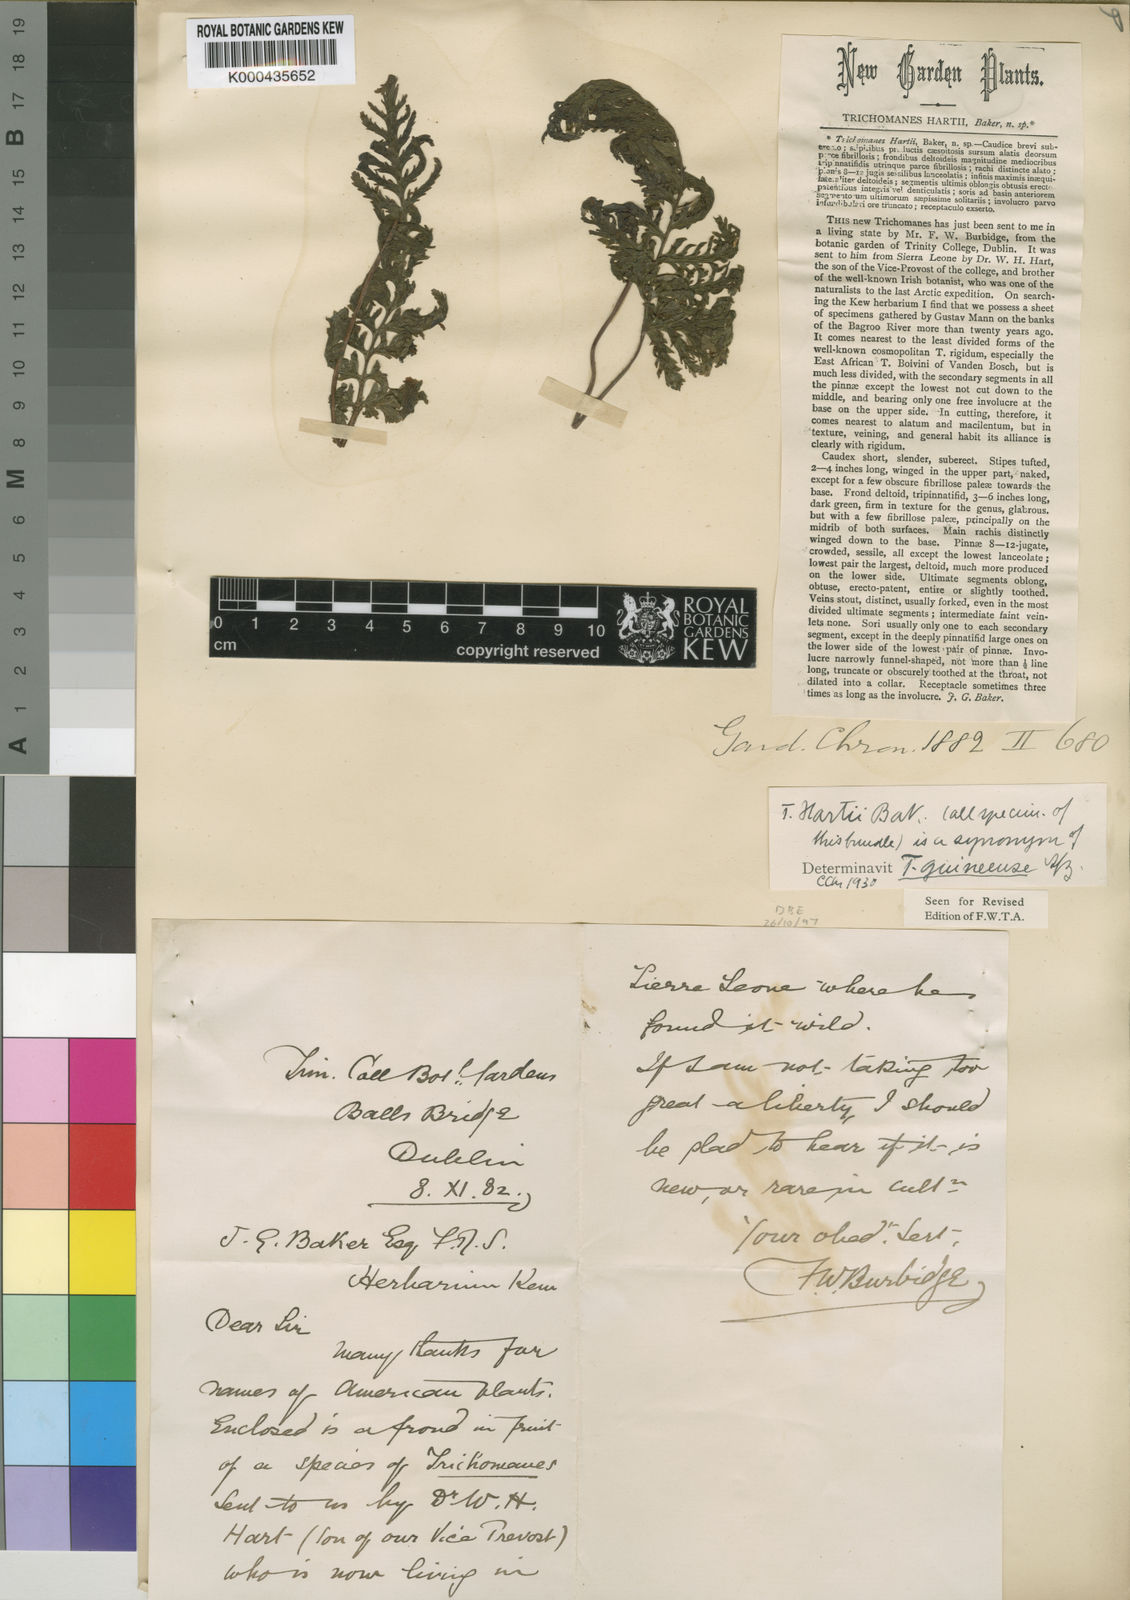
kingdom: Plantae
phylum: Tracheophyta
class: Polypodiopsida
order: Hymenophyllales
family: Hymenophyllaceae
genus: Abrodictyum
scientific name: Abrodictyum guineense
